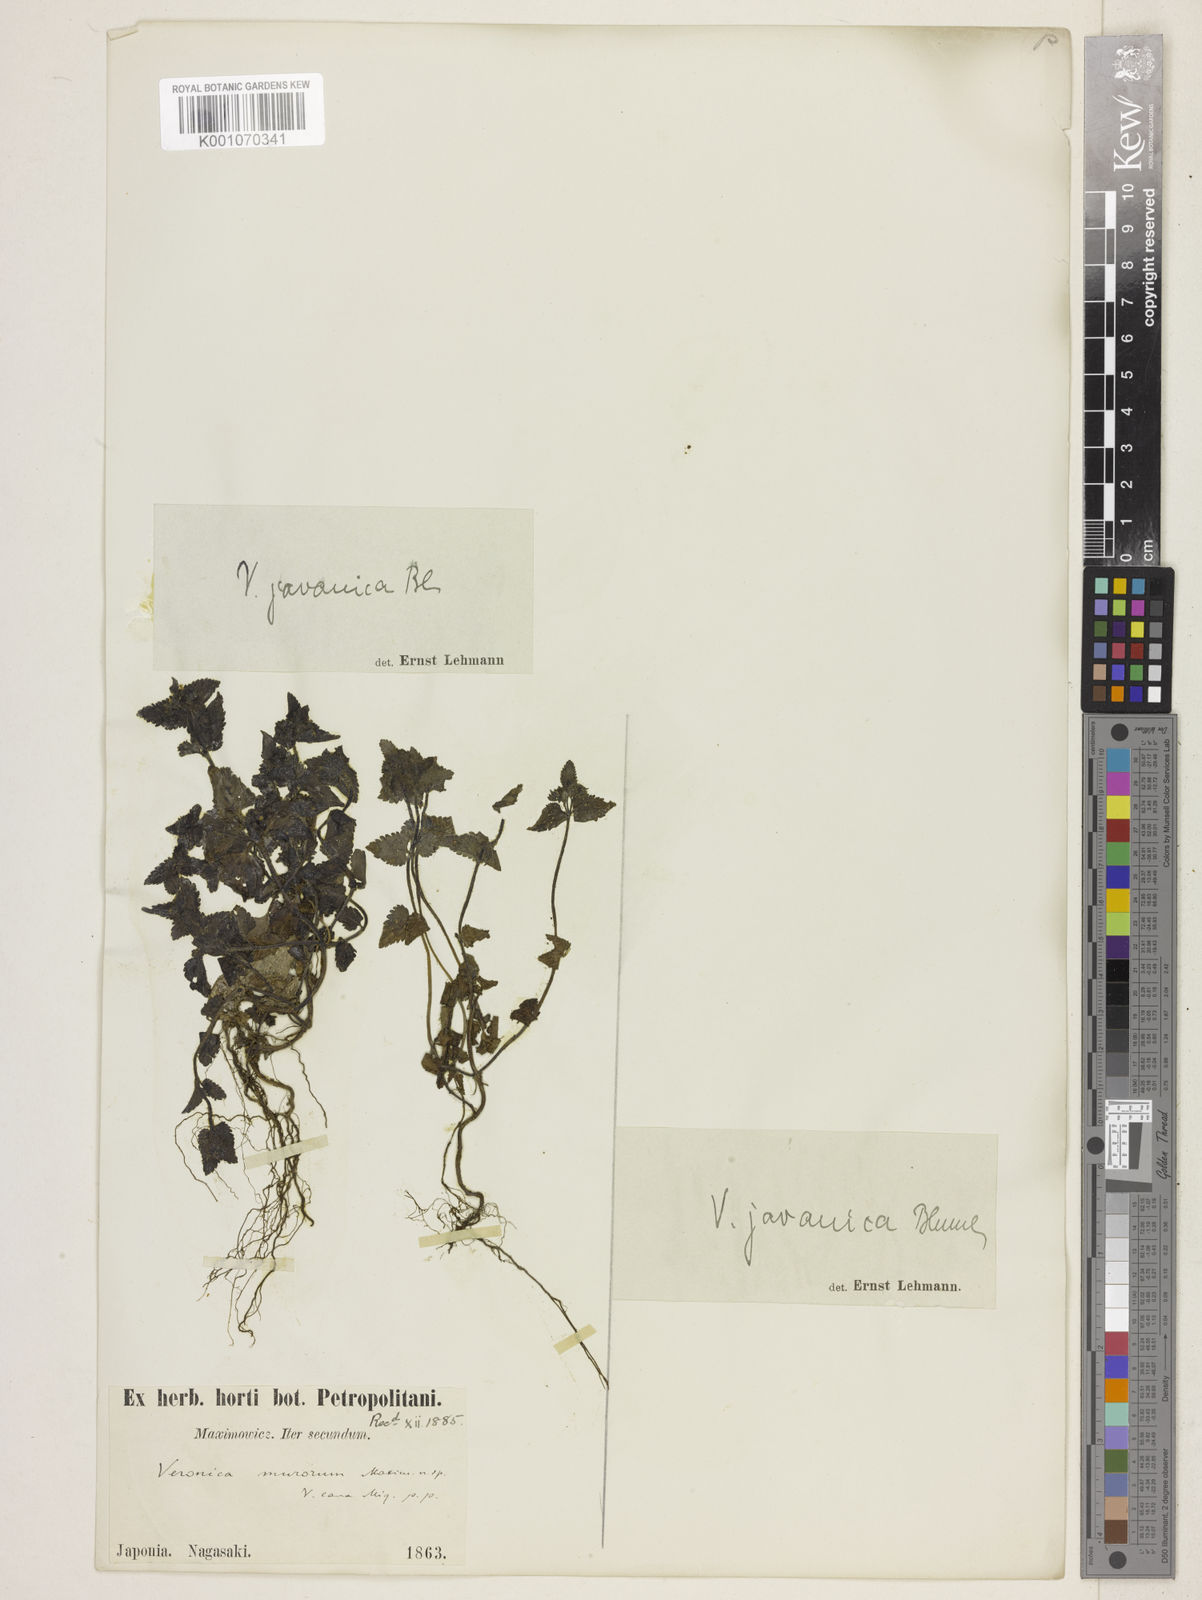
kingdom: Plantae
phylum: Tracheophyta
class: Magnoliopsida
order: Lamiales
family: Plantaginaceae
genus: Veronica
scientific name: Veronica javanica
